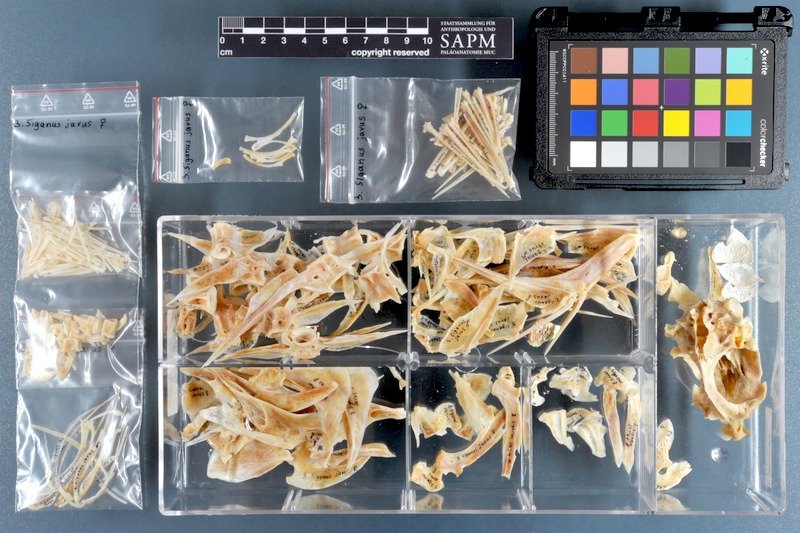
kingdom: Animalia
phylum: Chordata
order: Perciformes
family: Siganidae
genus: Siganus
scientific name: Siganus javus
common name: Java rabbitfish
